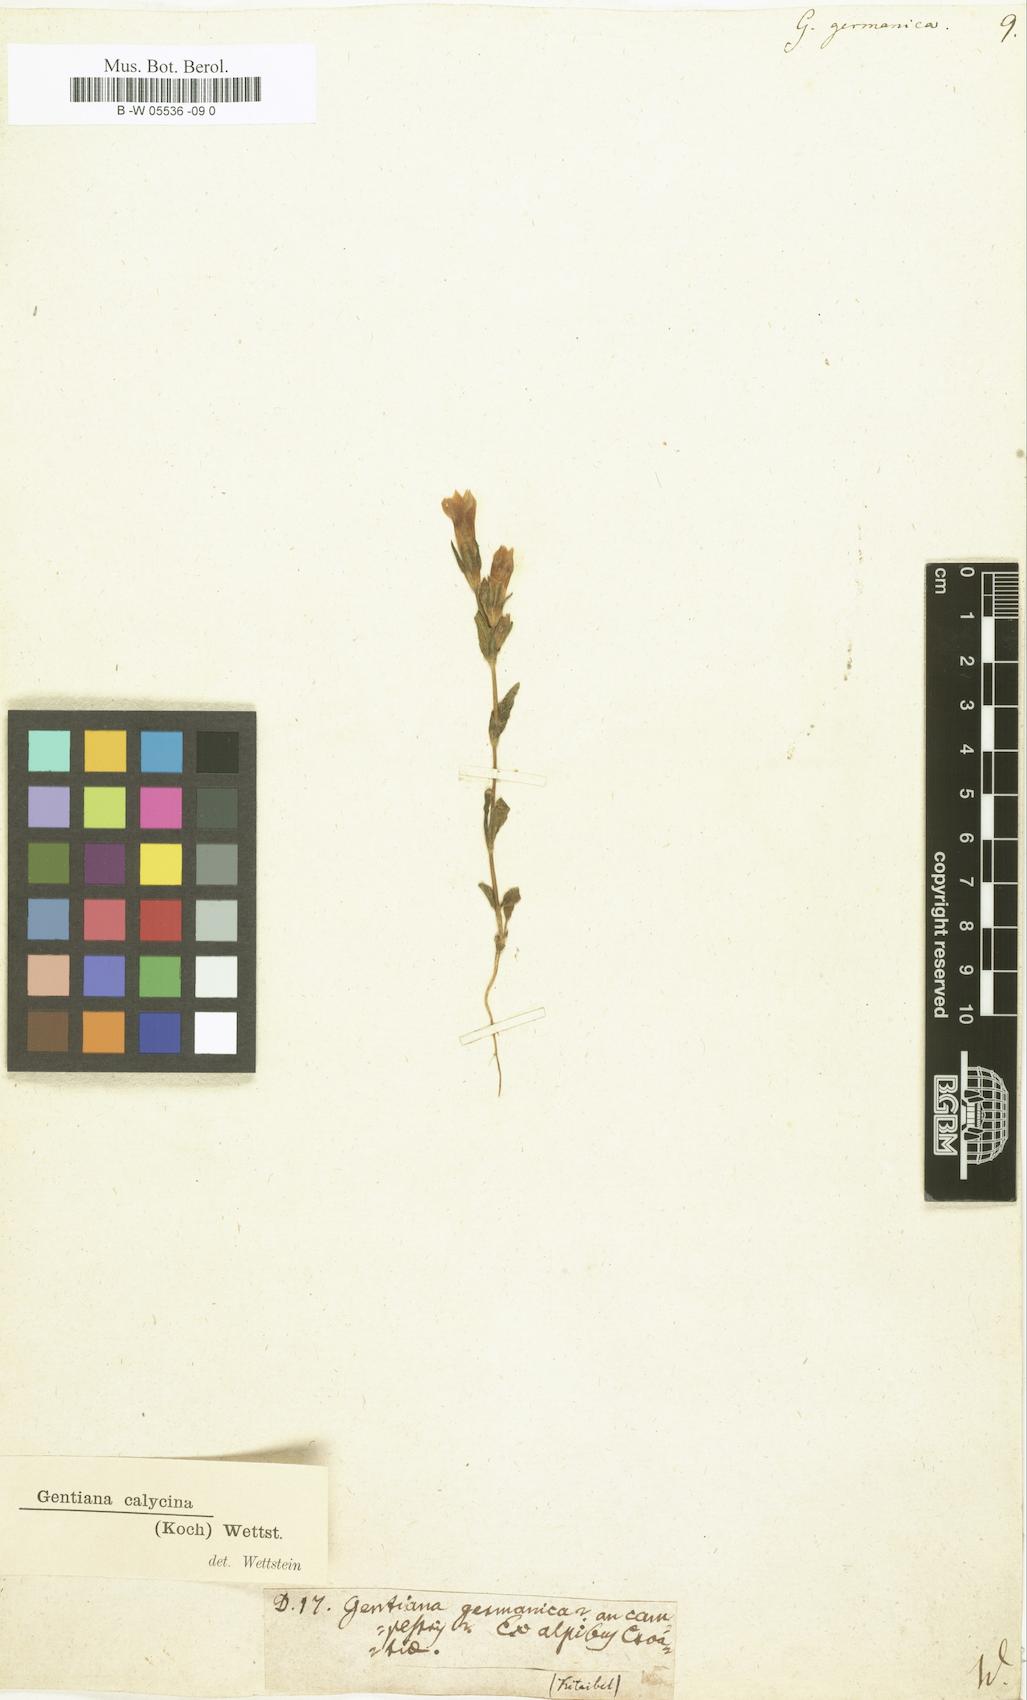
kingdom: Plantae
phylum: Tracheophyta
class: Magnoliopsida
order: Gentianales
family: Gentianaceae
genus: Gentianella
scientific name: Gentianella germanica
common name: Chiltern-gentian
